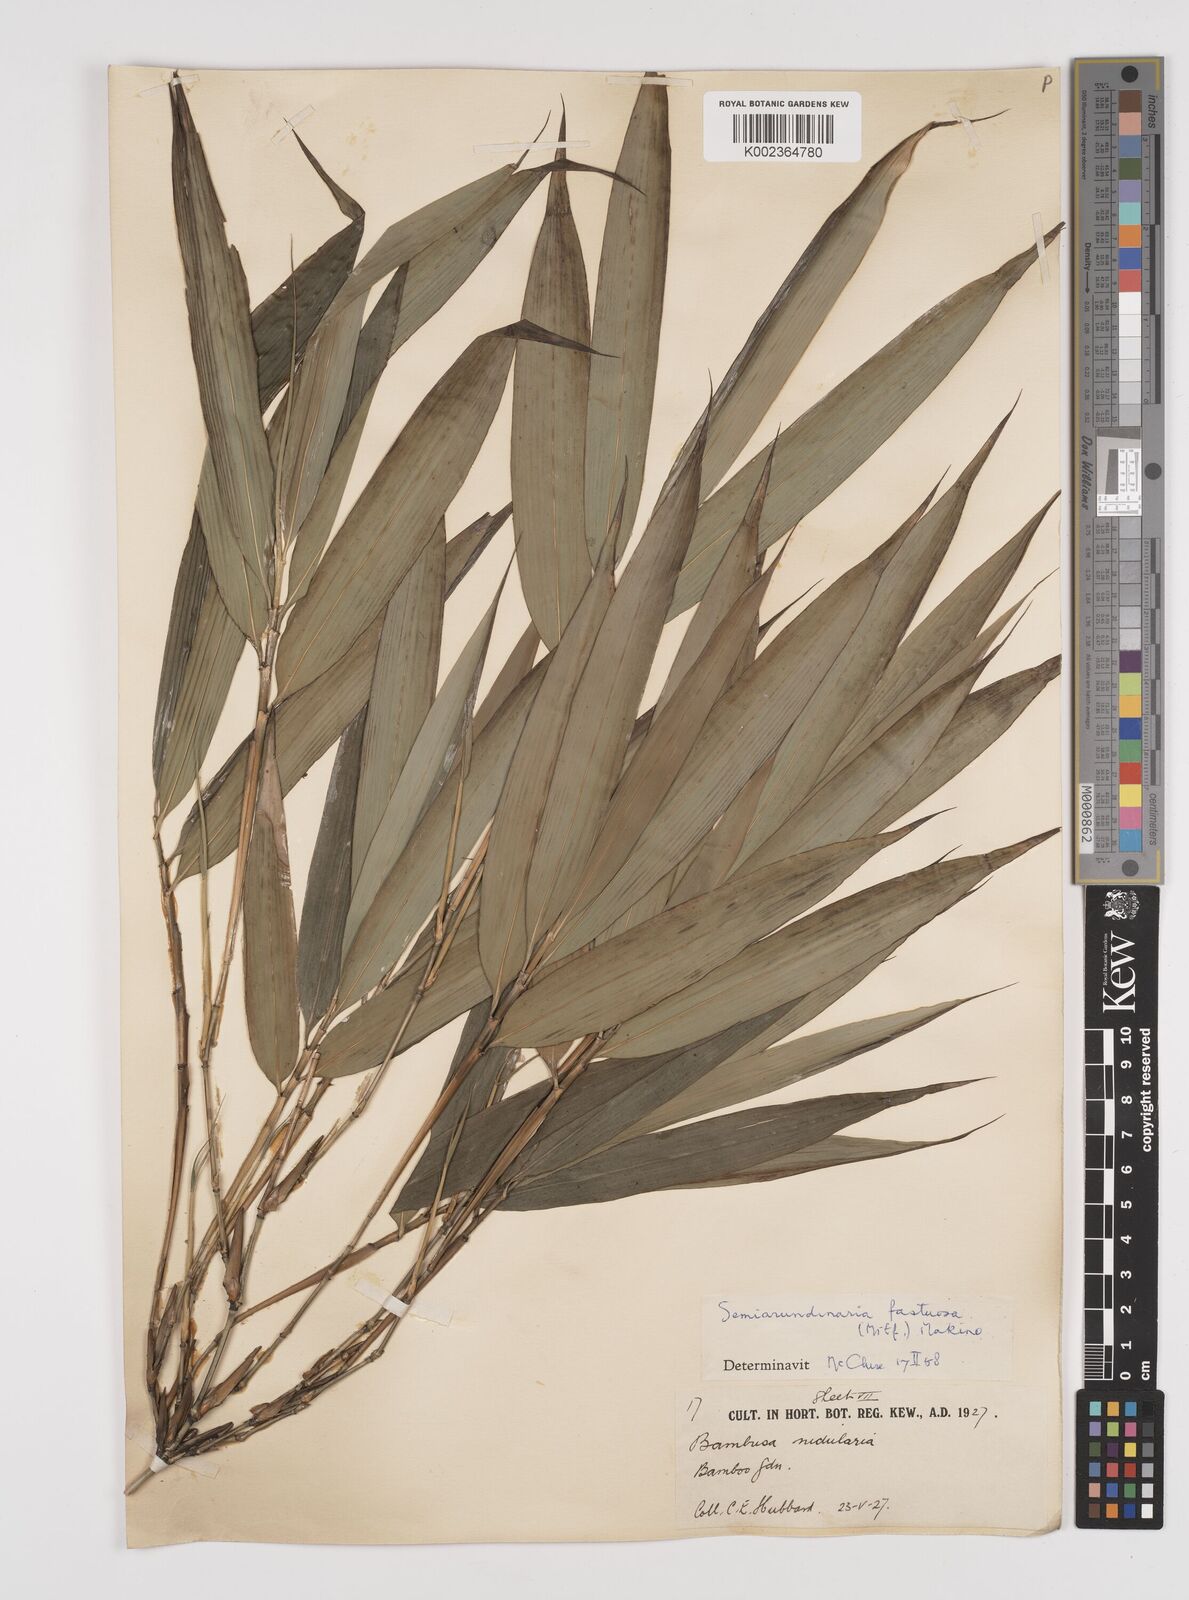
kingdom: Plantae
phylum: Tracheophyta
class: Liliopsida
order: Poales
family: Poaceae
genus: Semiarundinaria
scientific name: Semiarundinaria fastuosa
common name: Narihira bamboo
